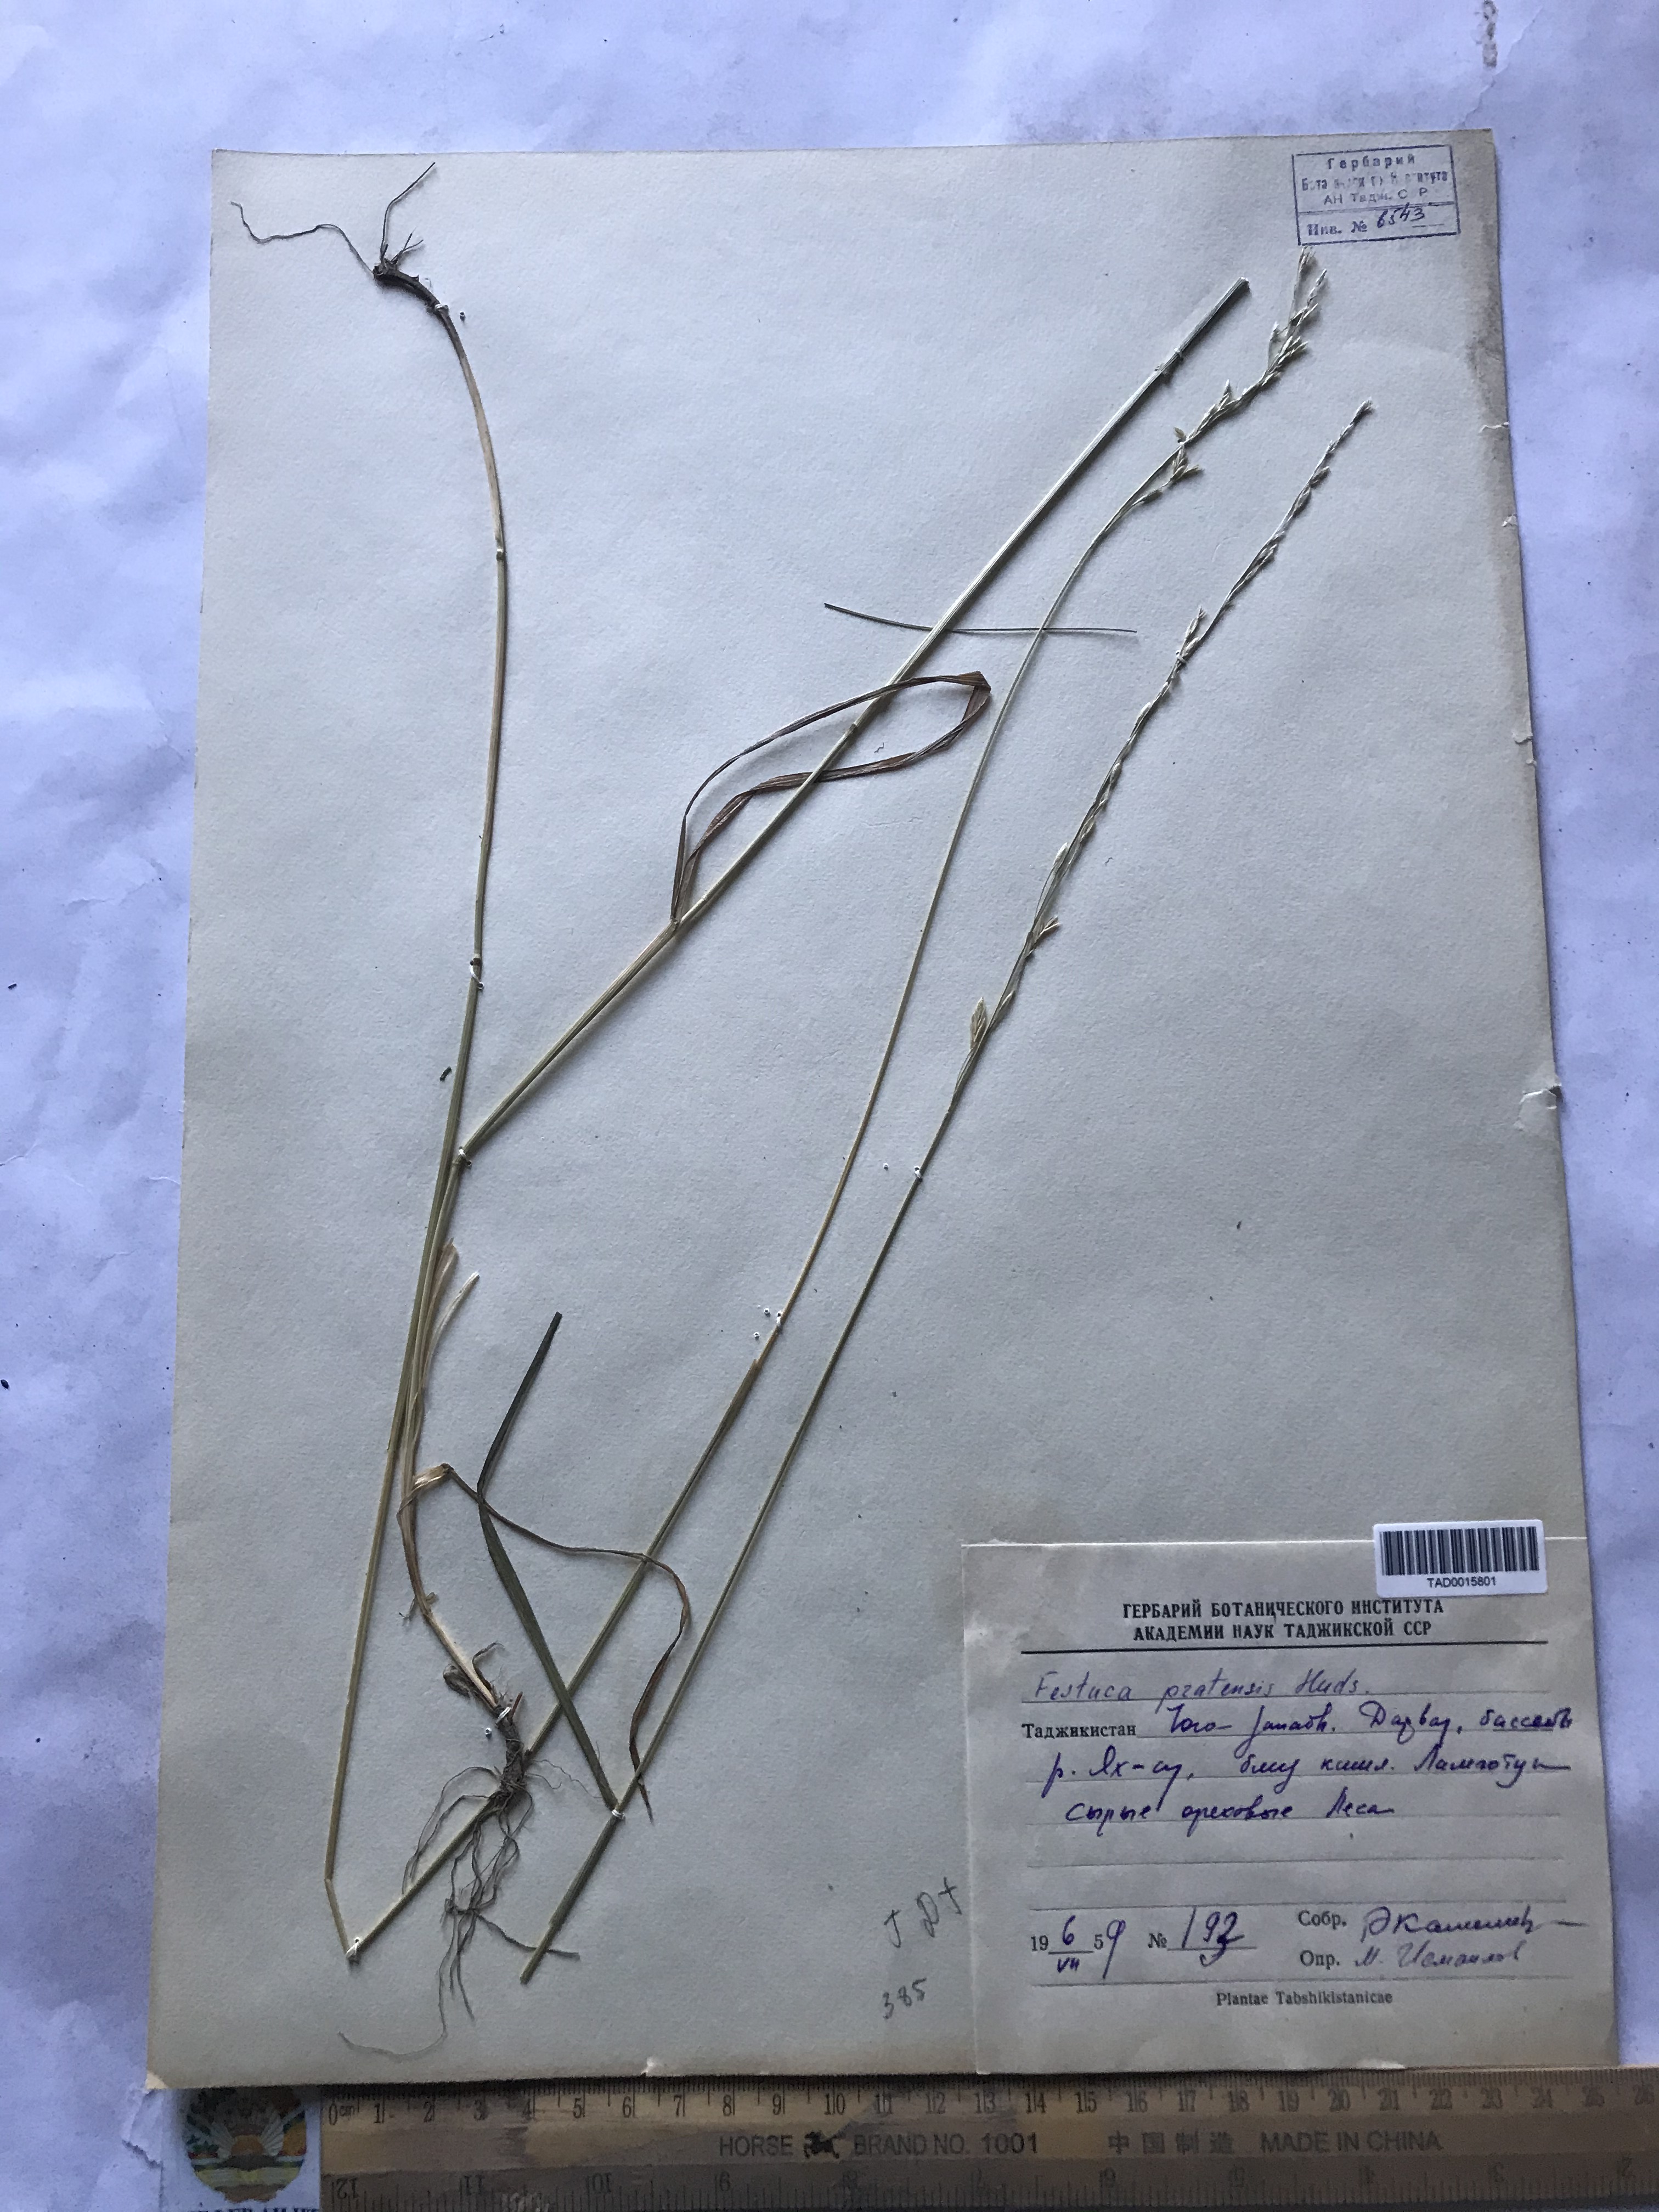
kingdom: Plantae
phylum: Tracheophyta
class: Liliopsida
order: Poales
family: Poaceae
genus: Lolium
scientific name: Lolium pratense
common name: Dover grass
